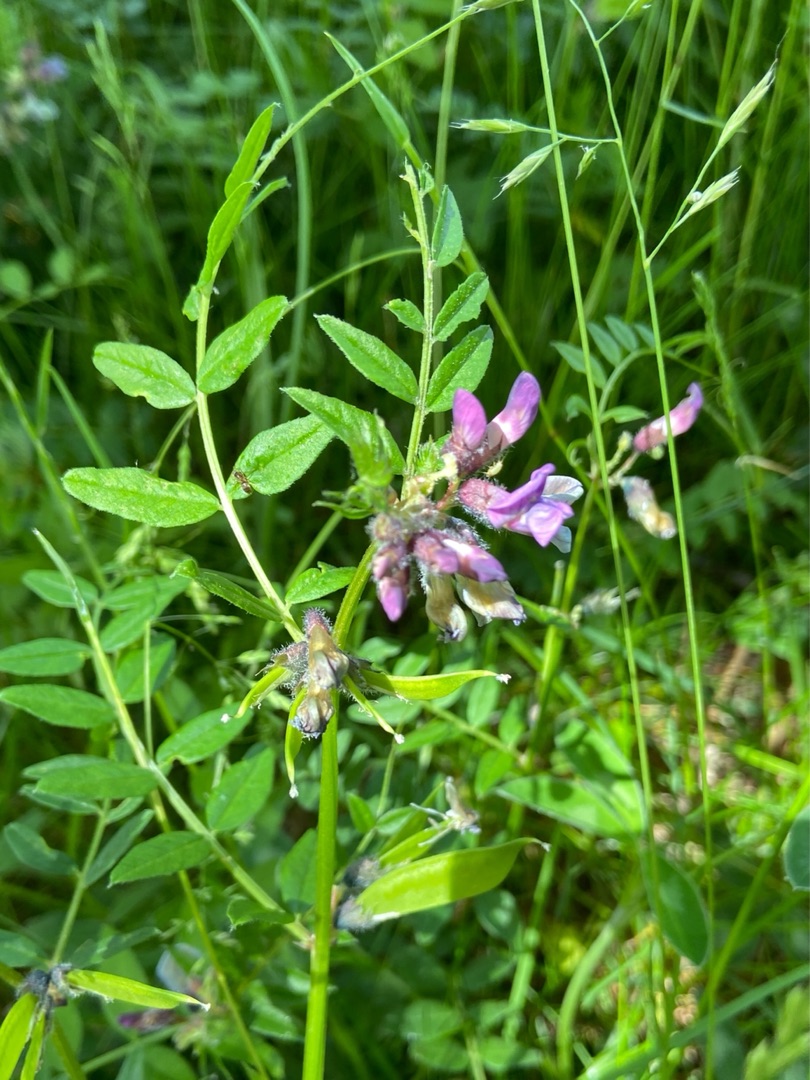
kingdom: Plantae
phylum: Tracheophyta
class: Magnoliopsida
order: Fabales
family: Fabaceae
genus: Vicia
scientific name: Vicia sepium
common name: Gærde-vikke
